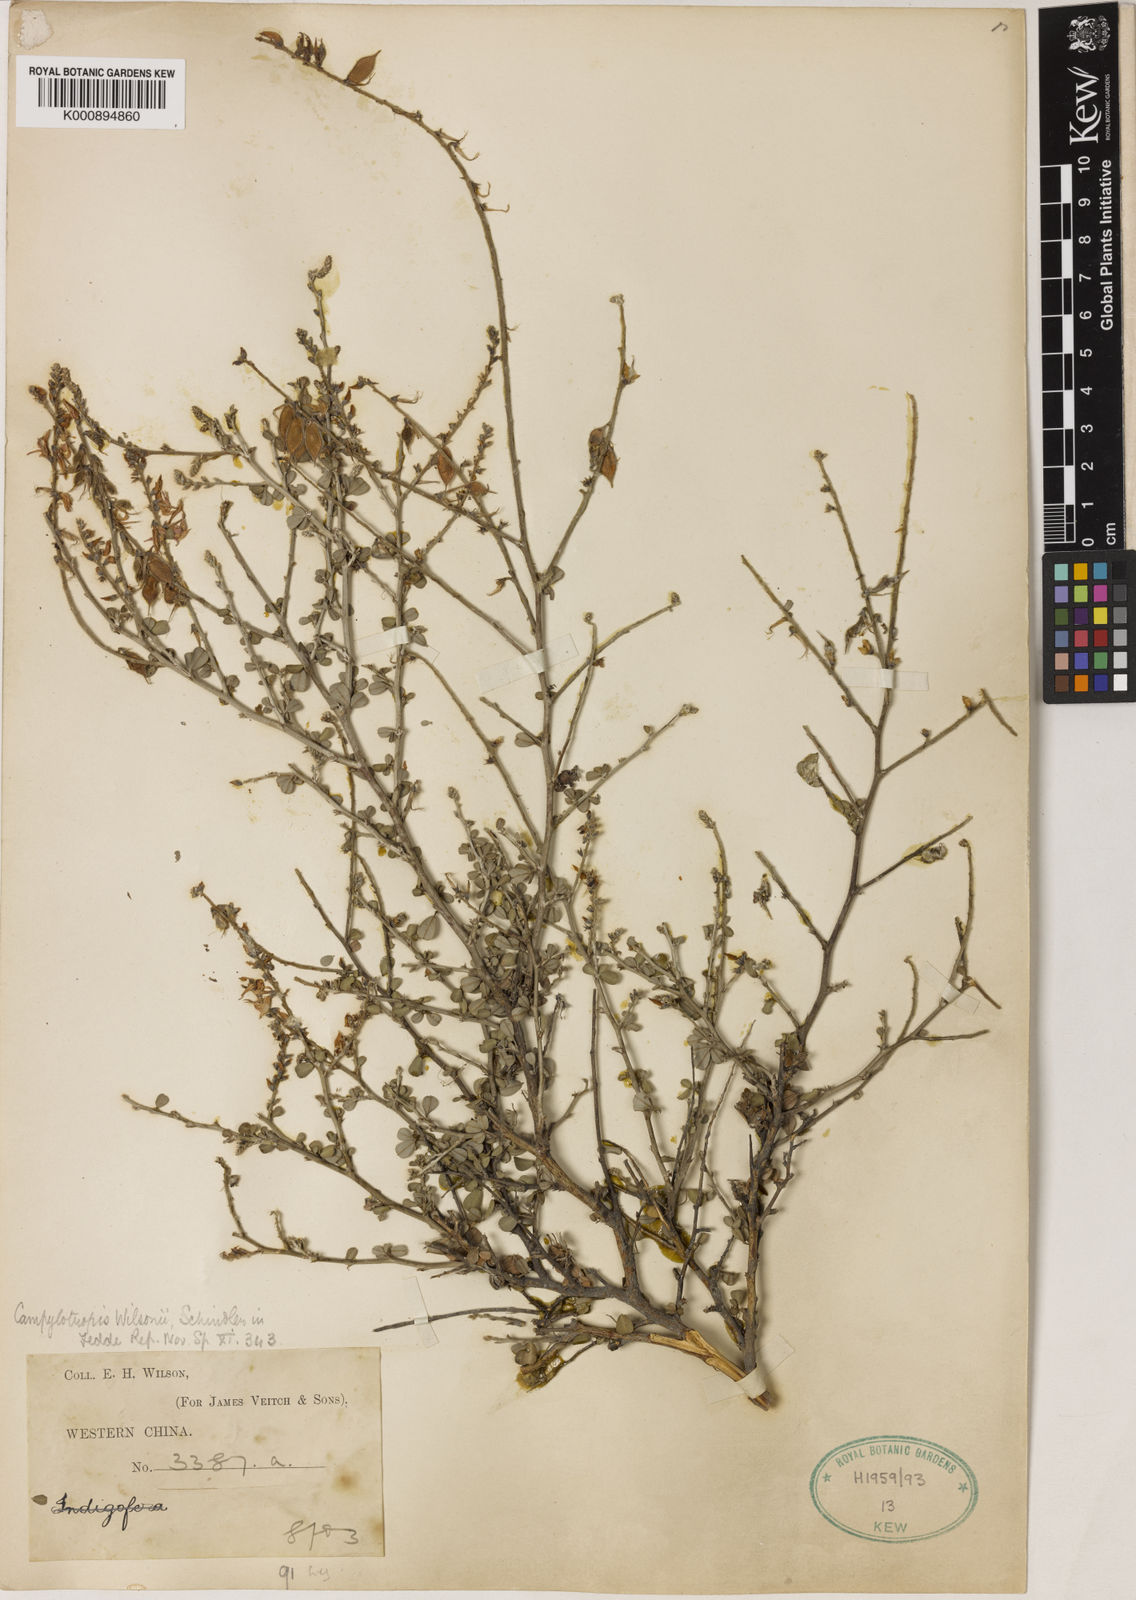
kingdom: Plantae
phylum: Tracheophyta
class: Magnoliopsida
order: Fabales
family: Fabaceae
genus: Campylotropis
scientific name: Campylotropis wilsonii
